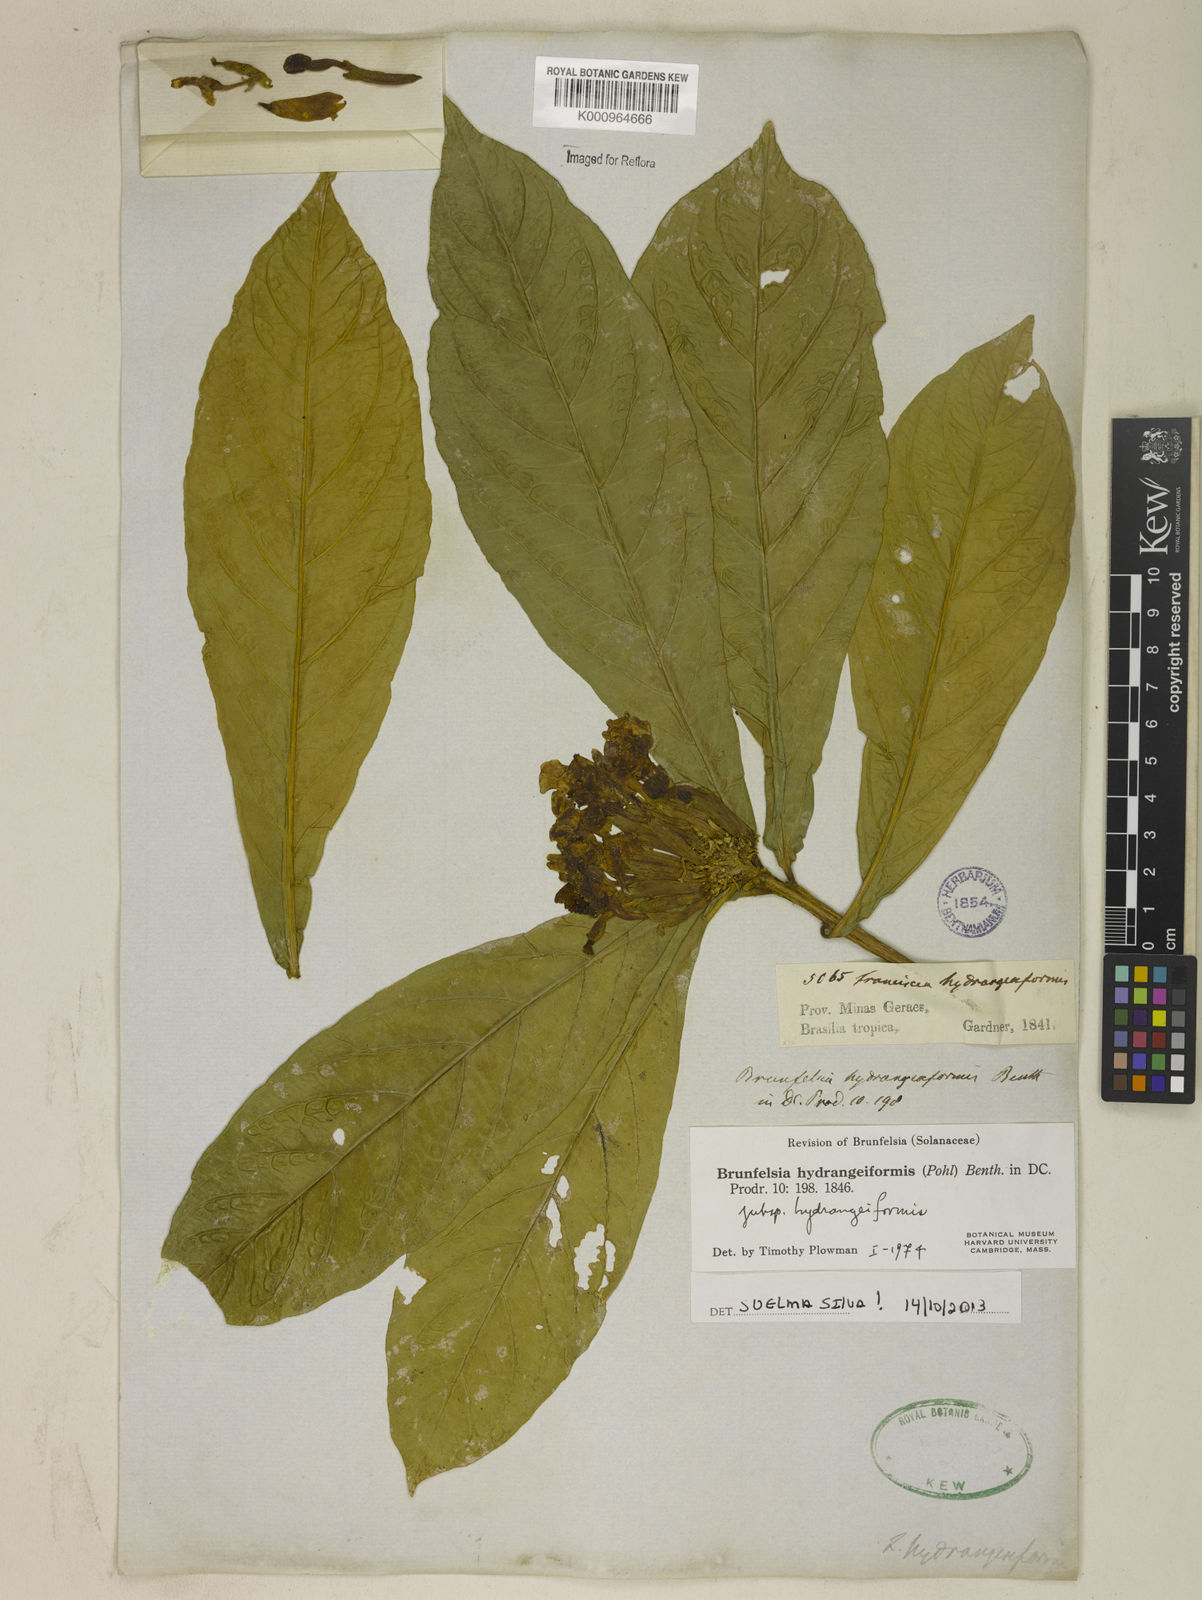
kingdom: Plantae
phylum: Tracheophyta
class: Magnoliopsida
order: Solanales
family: Solanaceae
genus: Brunfelsia
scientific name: Brunfelsia hydrangeiformis
